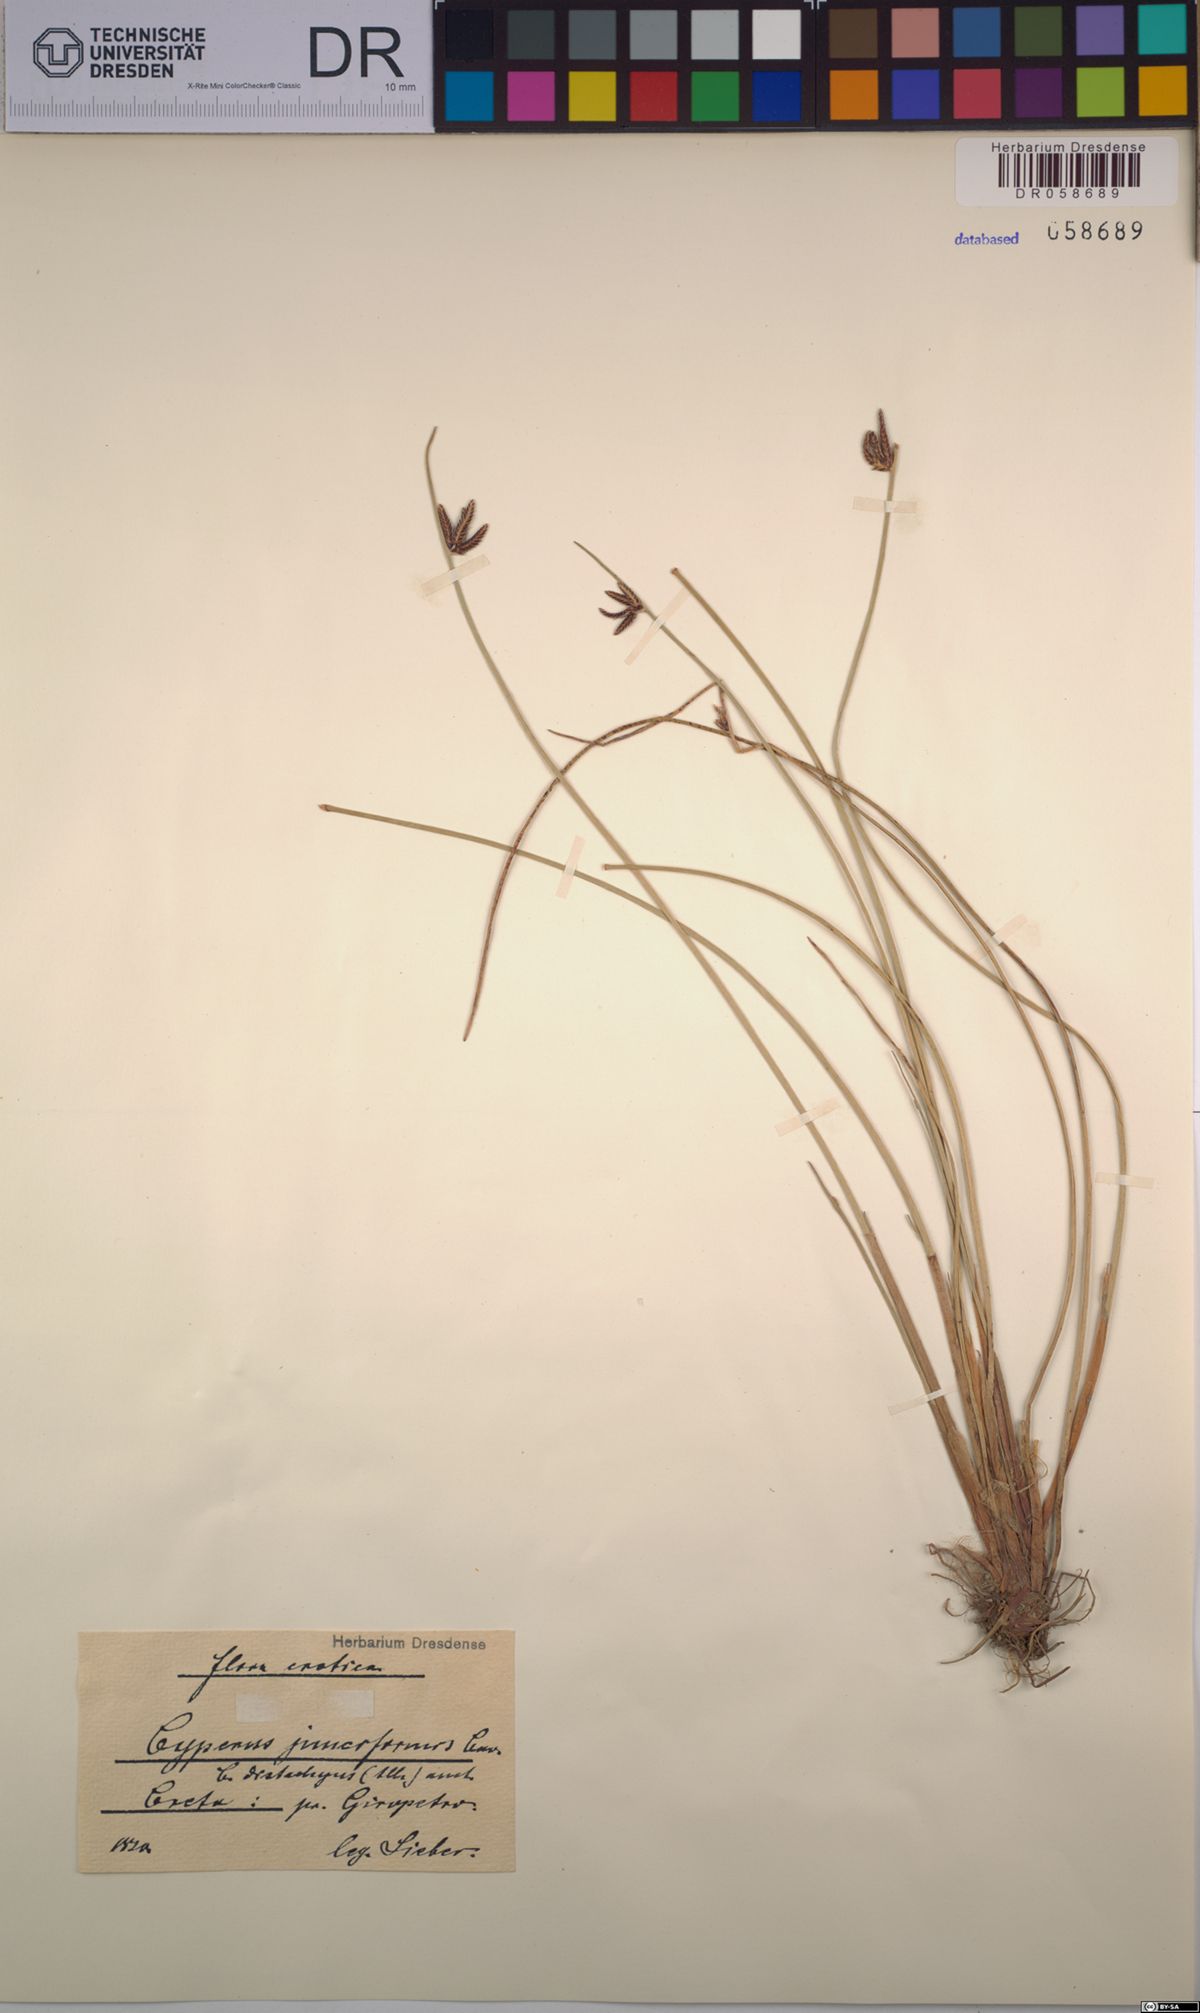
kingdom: Plantae
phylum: Tracheophyta
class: Liliopsida
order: Poales
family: Cyperaceae
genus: Cyperus
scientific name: Cyperus laevigatus
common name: Smooth flat sedge
